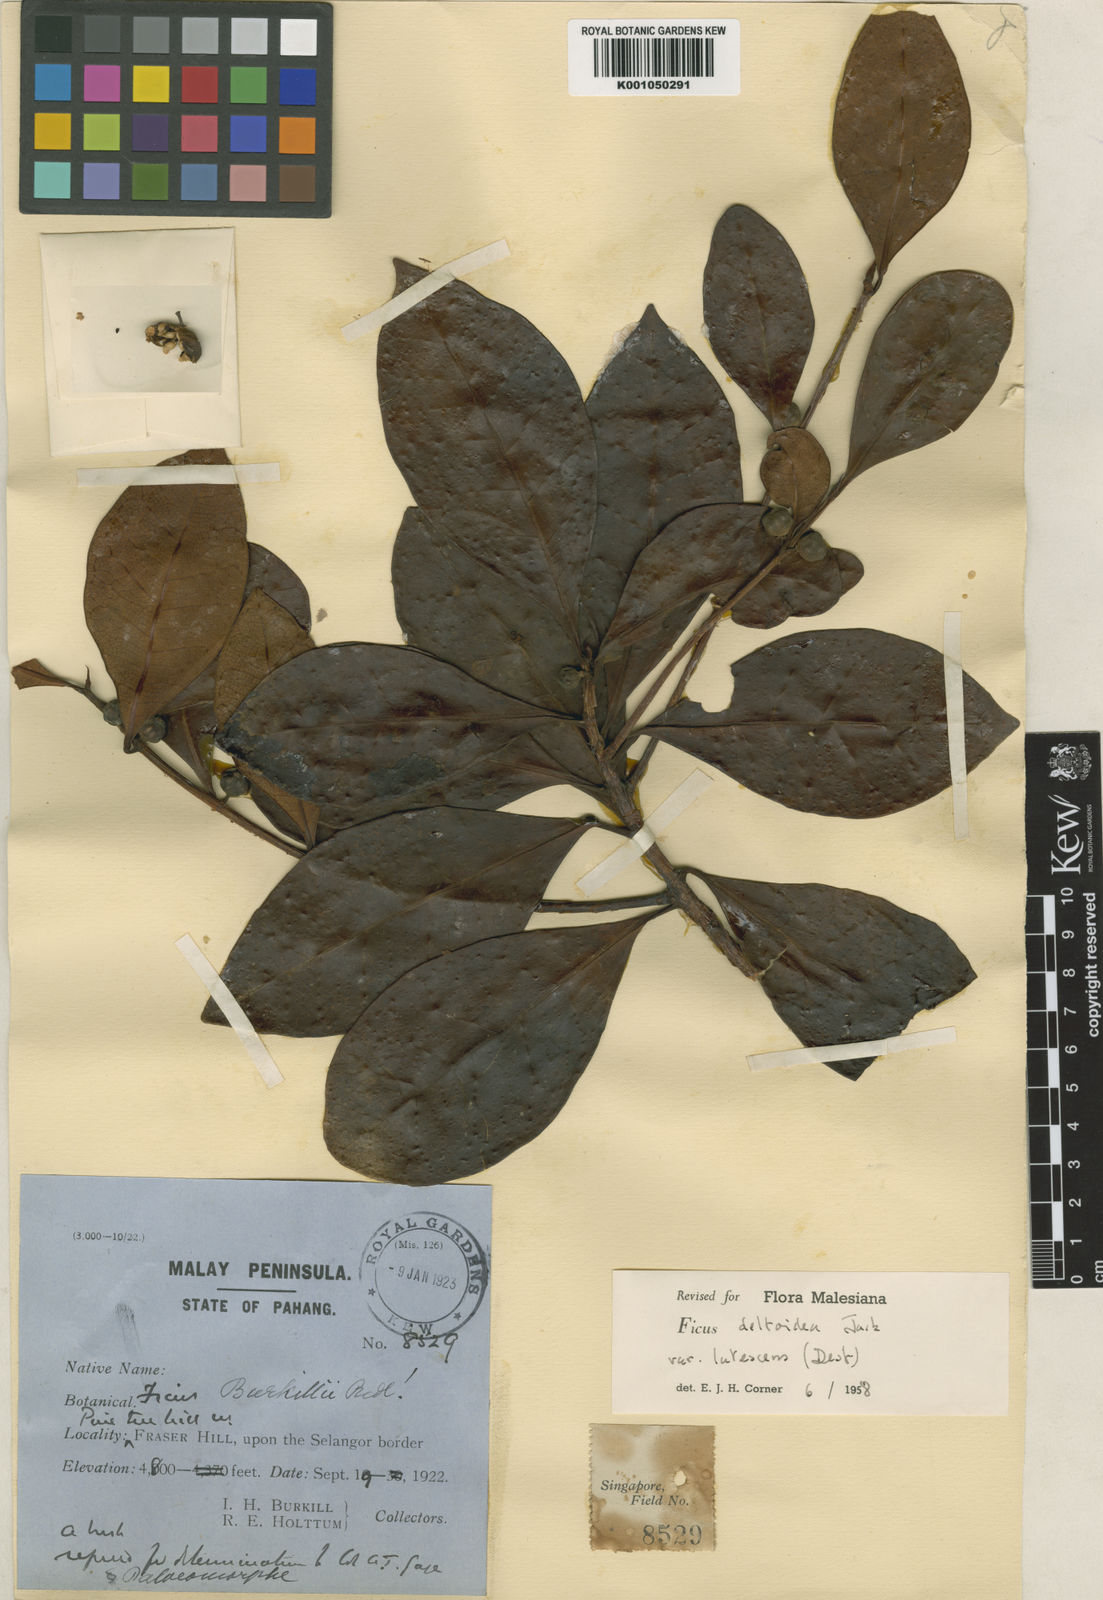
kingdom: Plantae
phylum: Tracheophyta
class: Magnoliopsida
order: Rosales
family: Moraceae
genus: Ficus
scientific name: Ficus deltoidea
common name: Mistletoe fig
